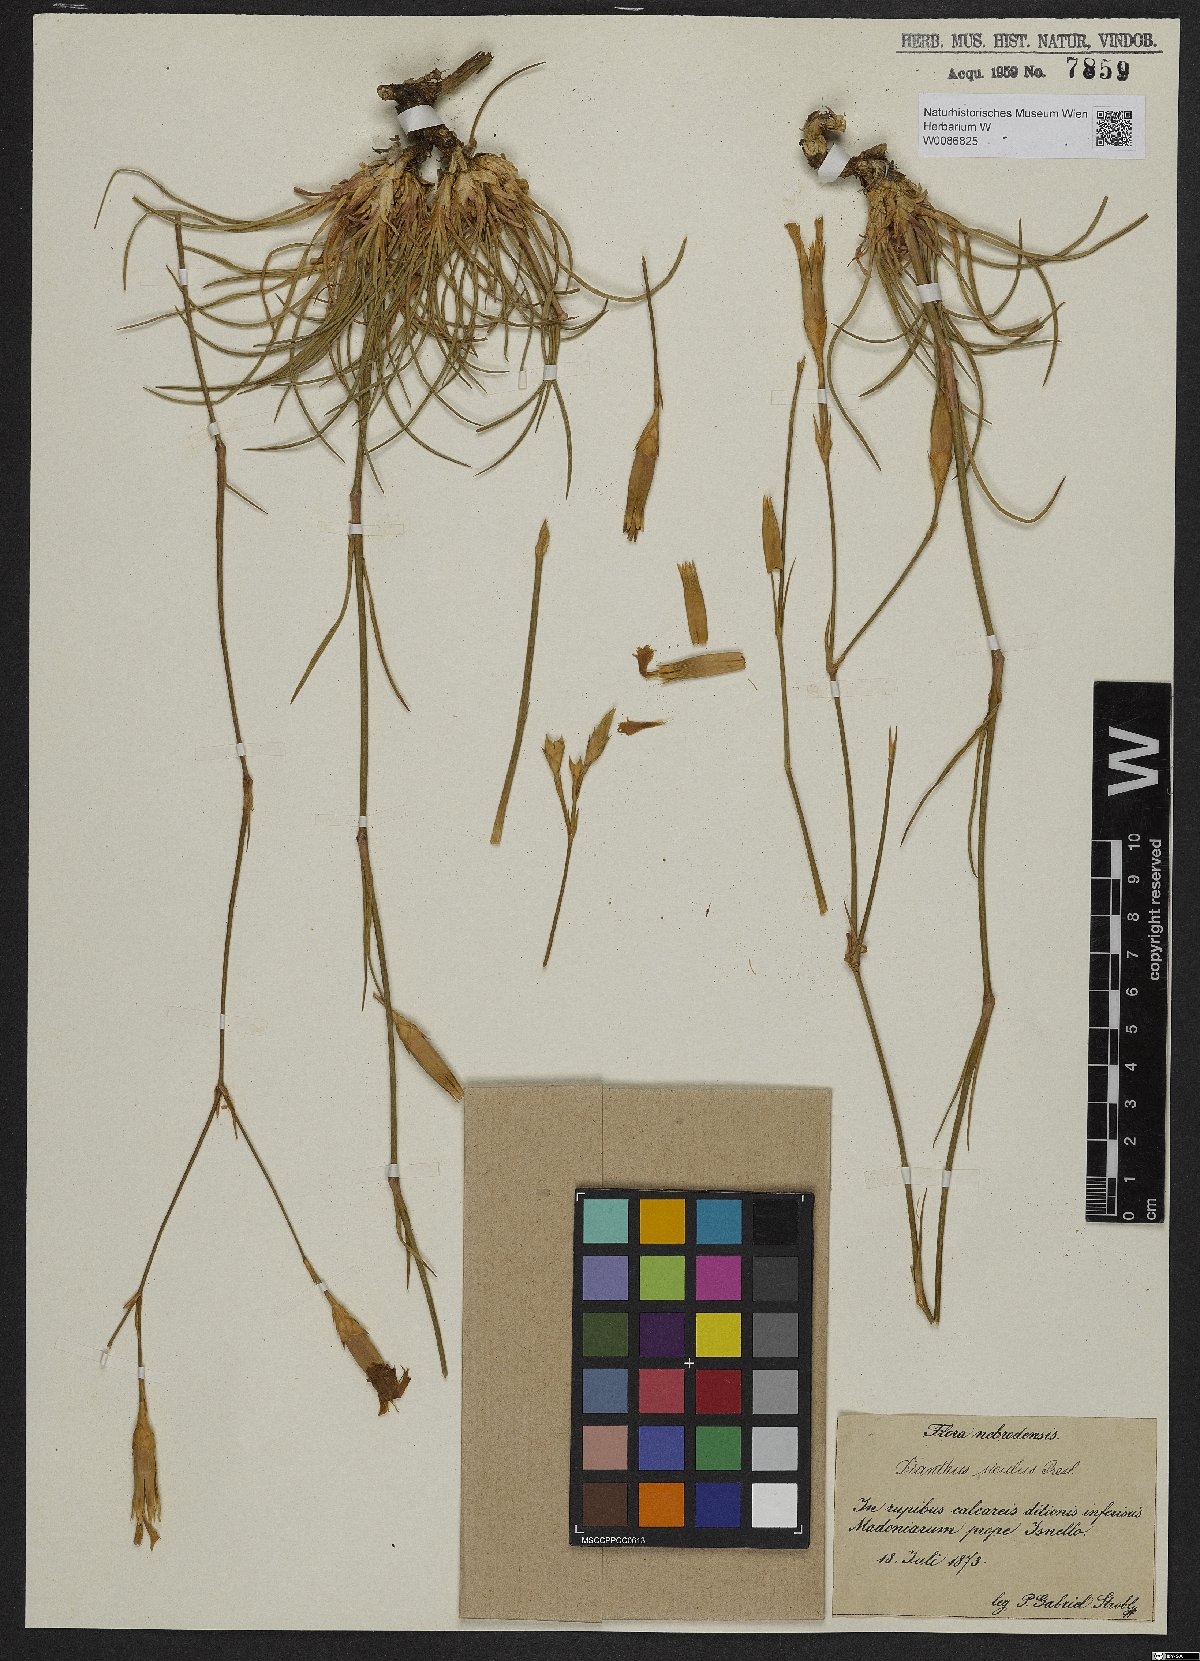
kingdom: Plantae
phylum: Tracheophyta
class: Magnoliopsida
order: Caryophyllales
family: Caryophyllaceae
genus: Dianthus
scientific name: Dianthus siculus
